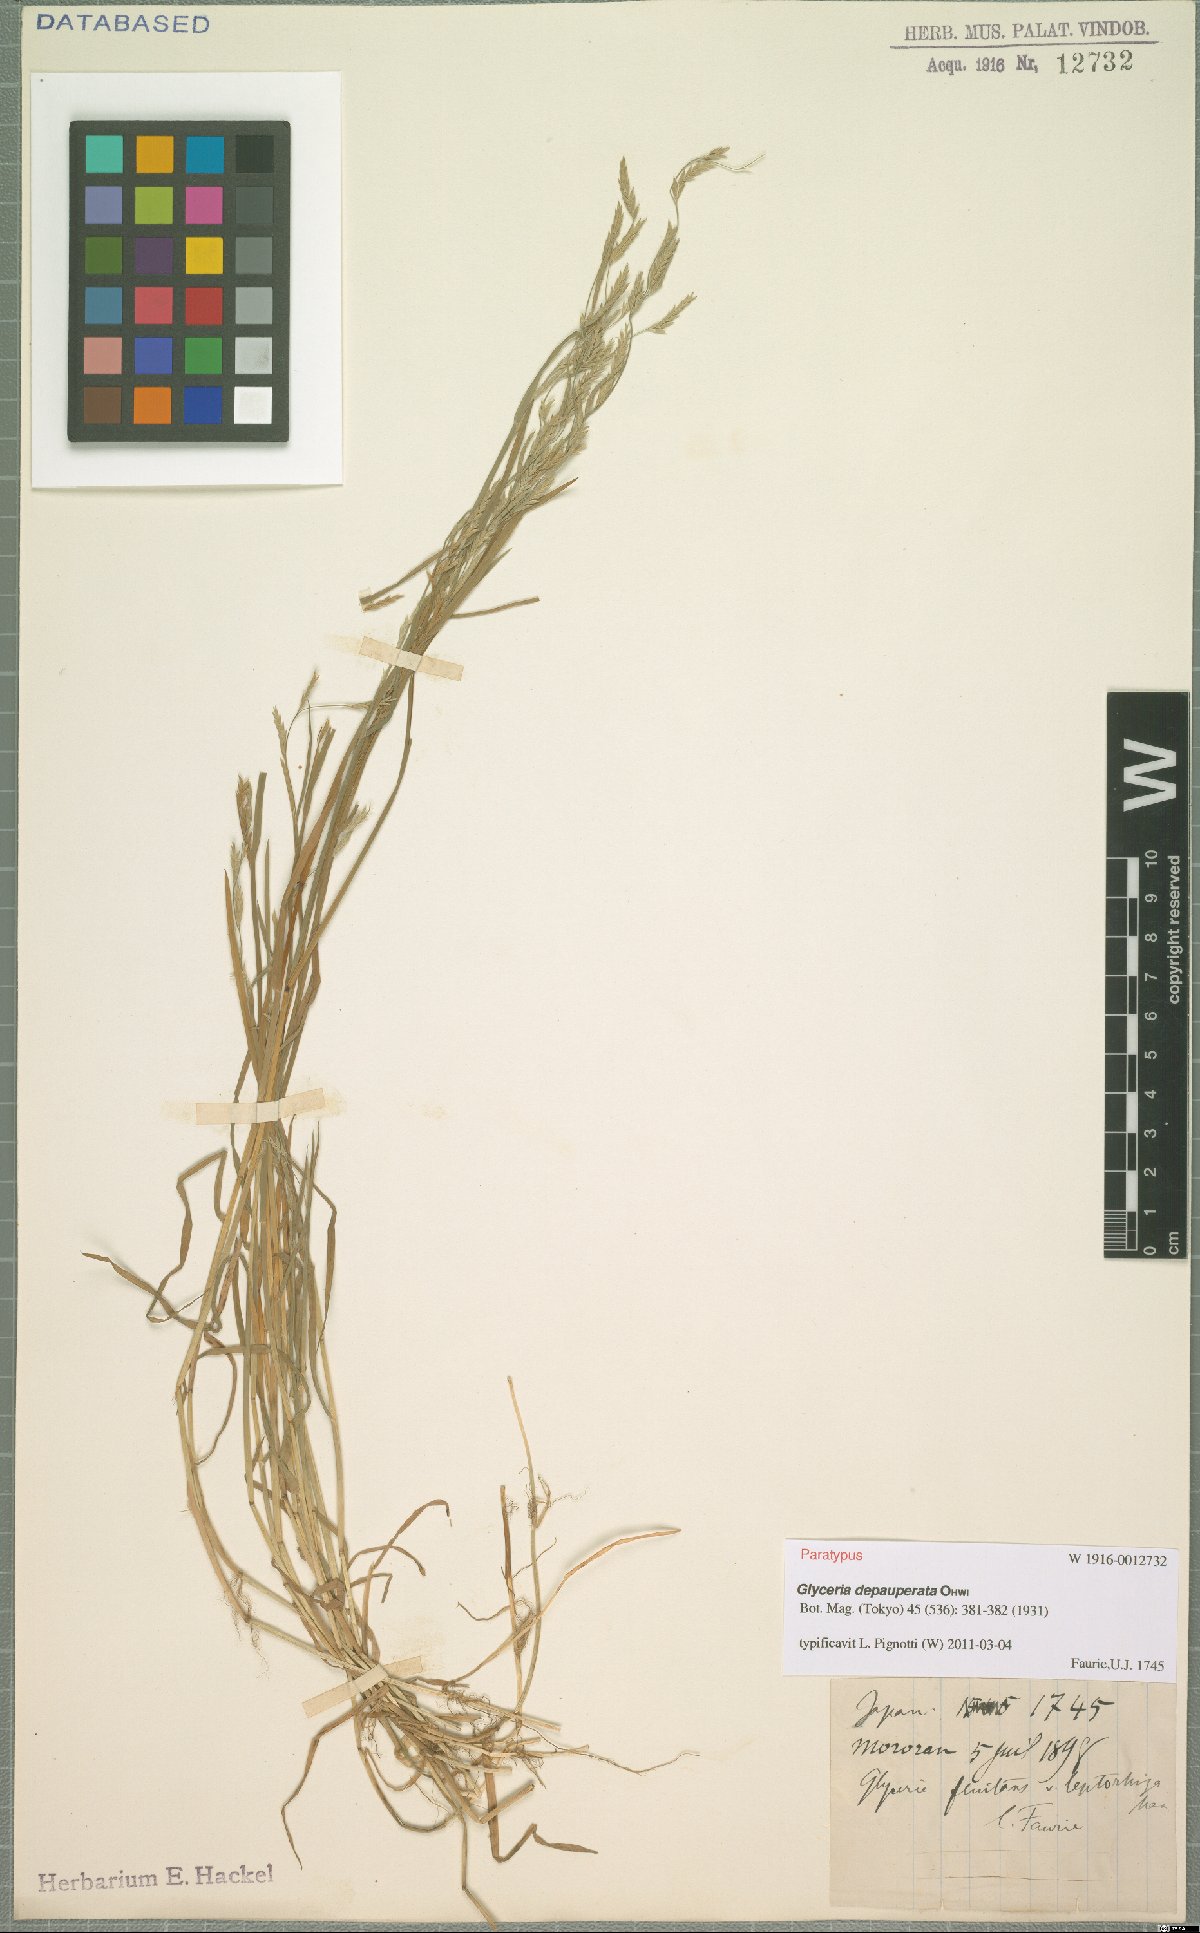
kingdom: Plantae
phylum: Tracheophyta
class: Liliopsida
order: Poales
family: Poaceae
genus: Glyceria
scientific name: Glyceria depauperata
